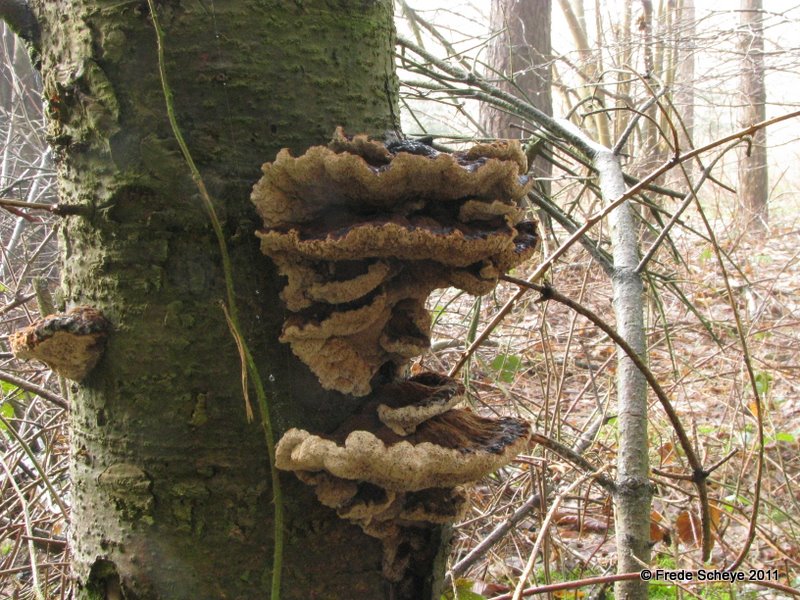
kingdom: Fungi
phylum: Basidiomycota
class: Agaricomycetes
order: Polyporales
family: Ischnodermataceae
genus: Ischnoderma
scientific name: Ischnoderma benzoinum
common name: gran-tjæreporesvamp
